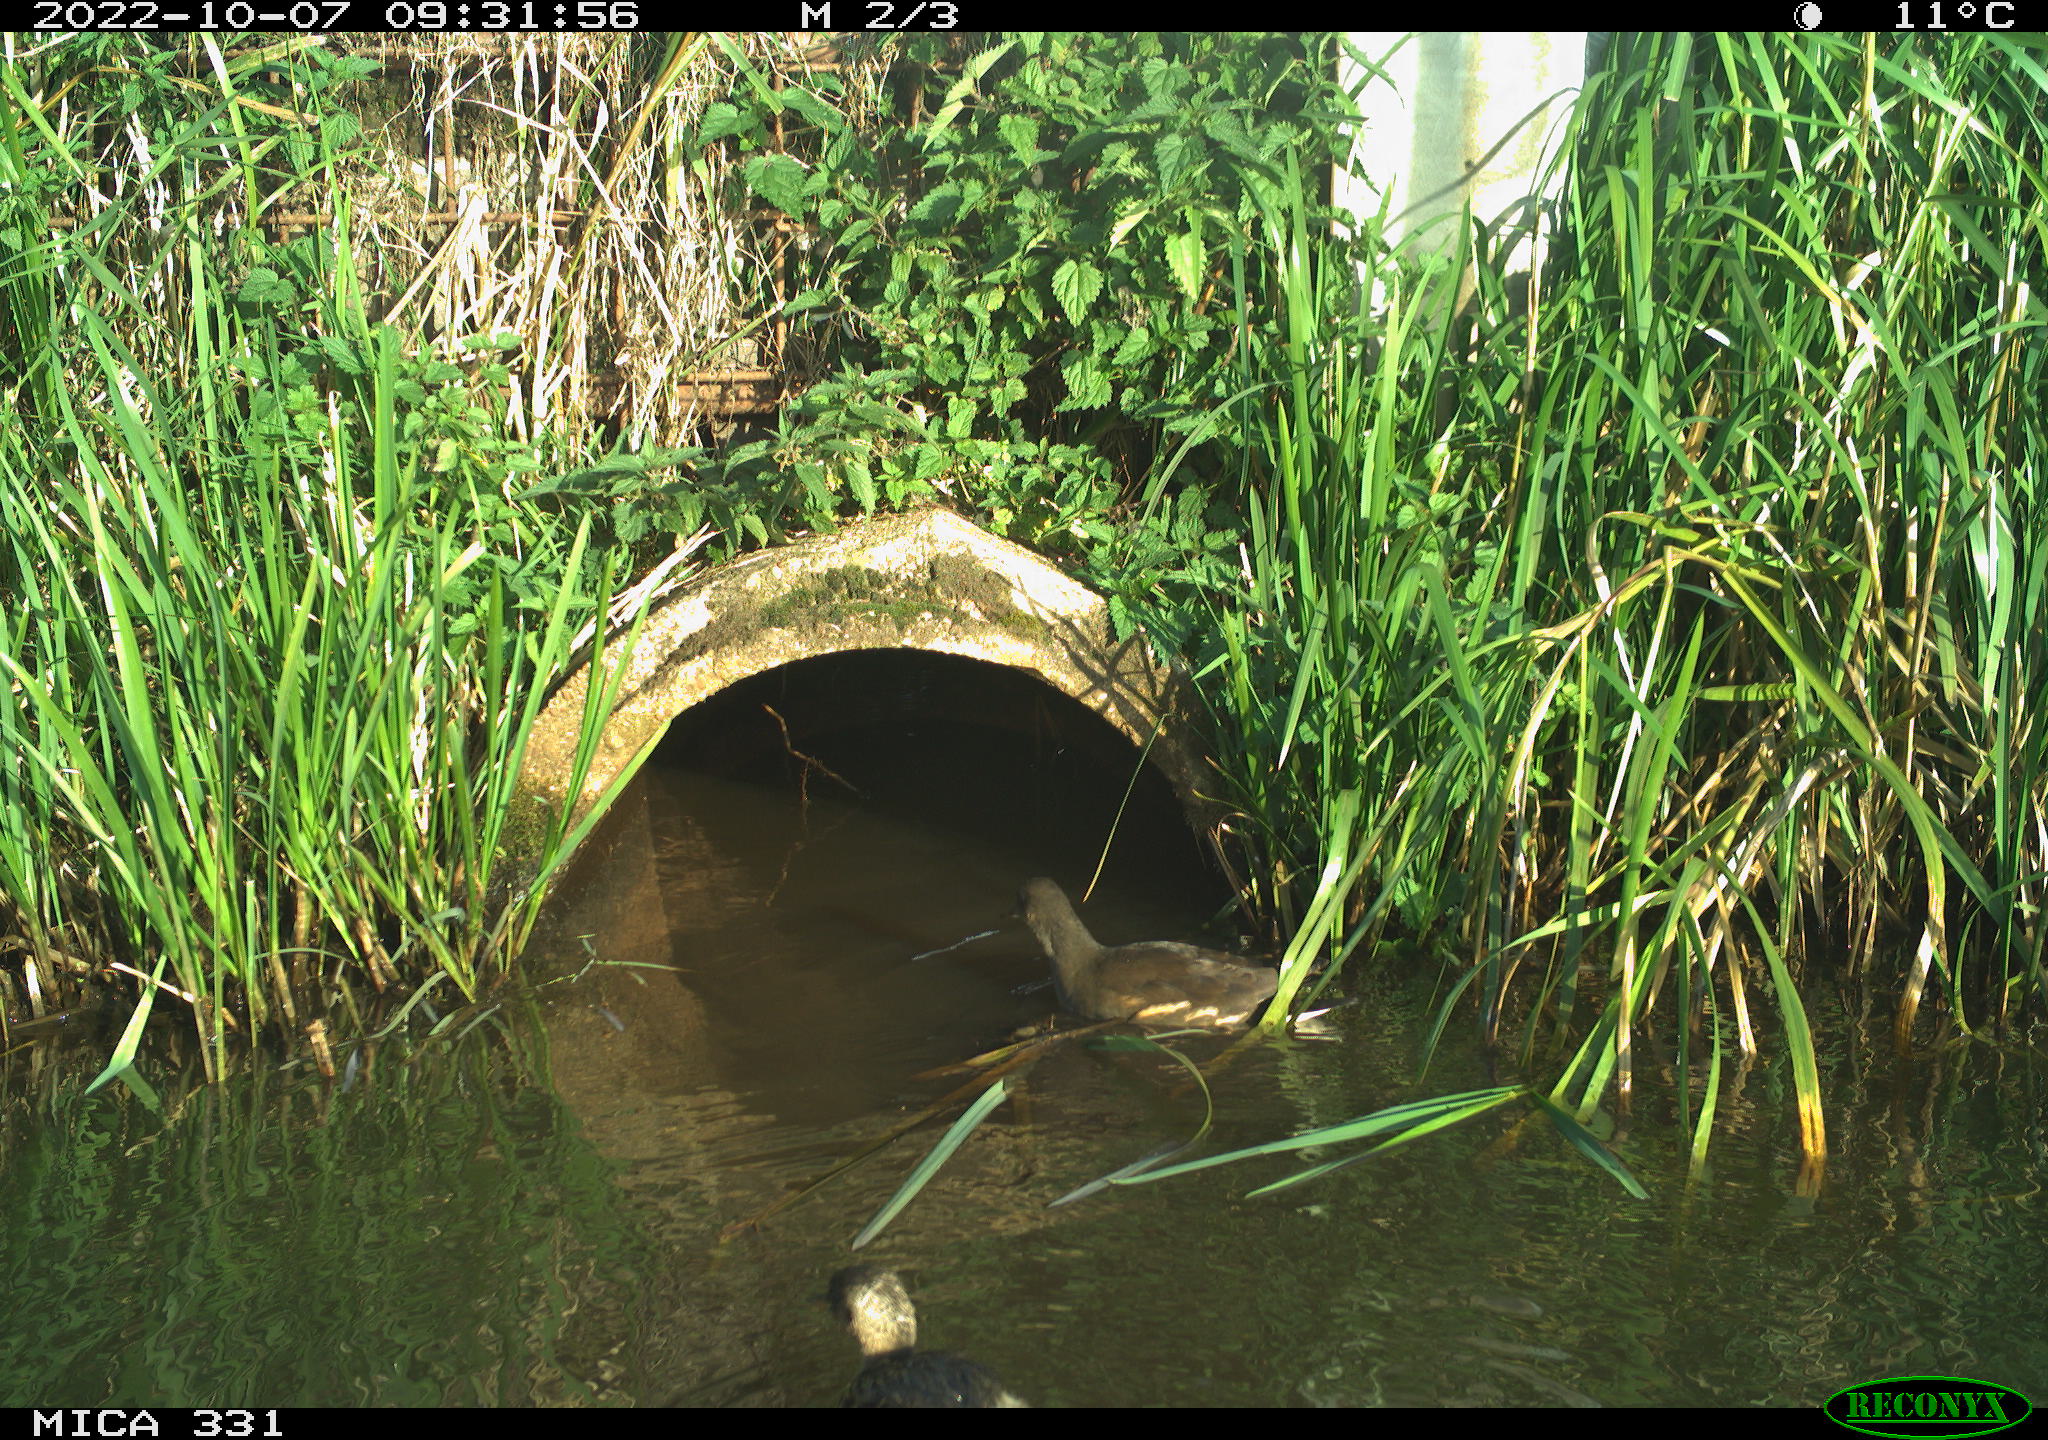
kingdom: Animalia
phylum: Chordata
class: Aves
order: Gruiformes
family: Rallidae
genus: Gallinula
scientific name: Gallinula chloropus
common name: Common moorhen
